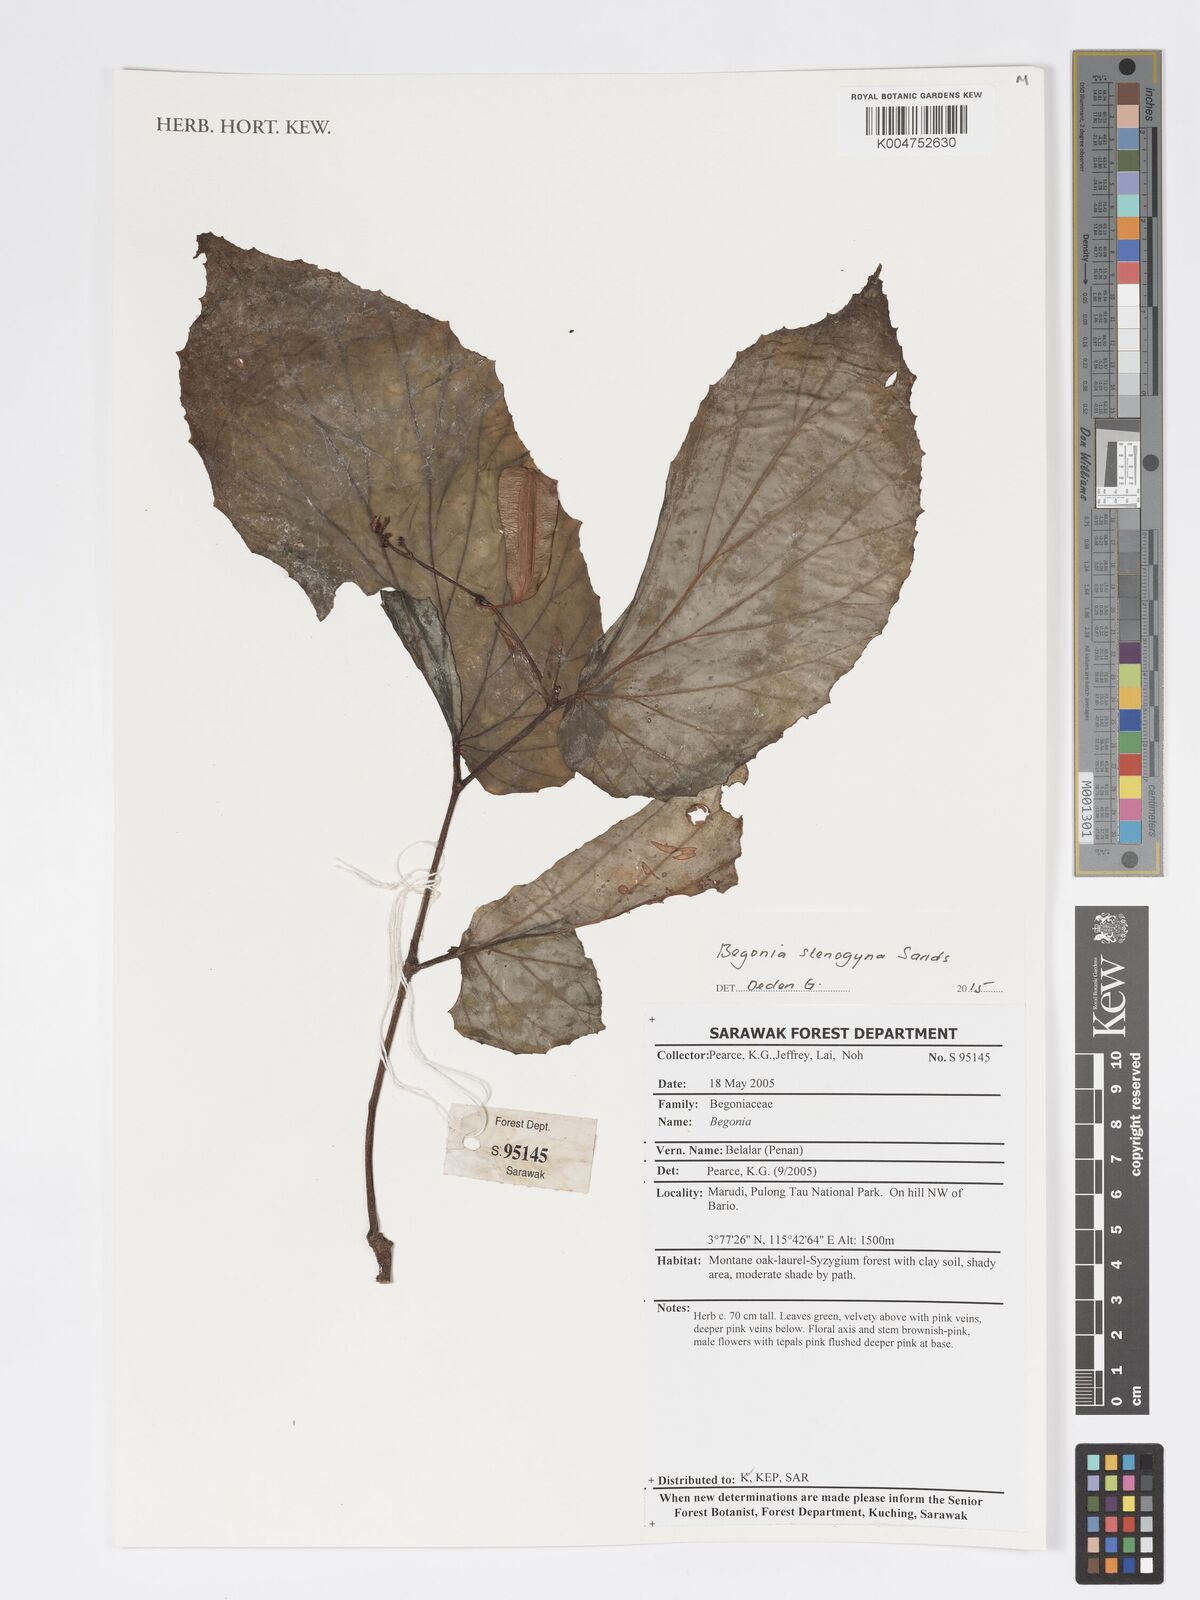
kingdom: Plantae
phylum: Tracheophyta
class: Magnoliopsida
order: Cucurbitales
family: Begoniaceae
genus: Begonia
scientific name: Begonia stenogyna
